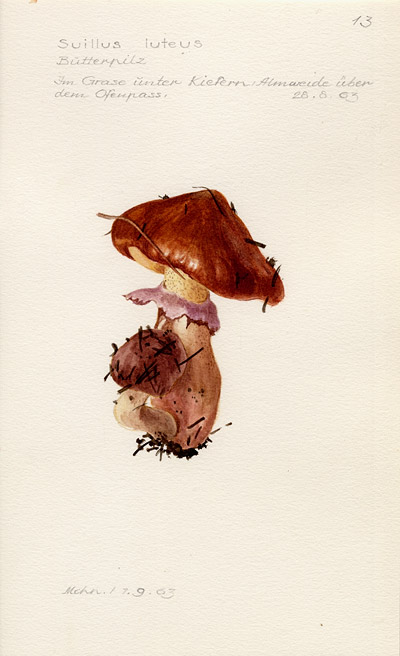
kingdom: Fungi
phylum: Basidiomycota
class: Agaricomycetes
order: Boletales
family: Suillaceae
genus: Suillus
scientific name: Suillus luteus
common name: Slippery jack
